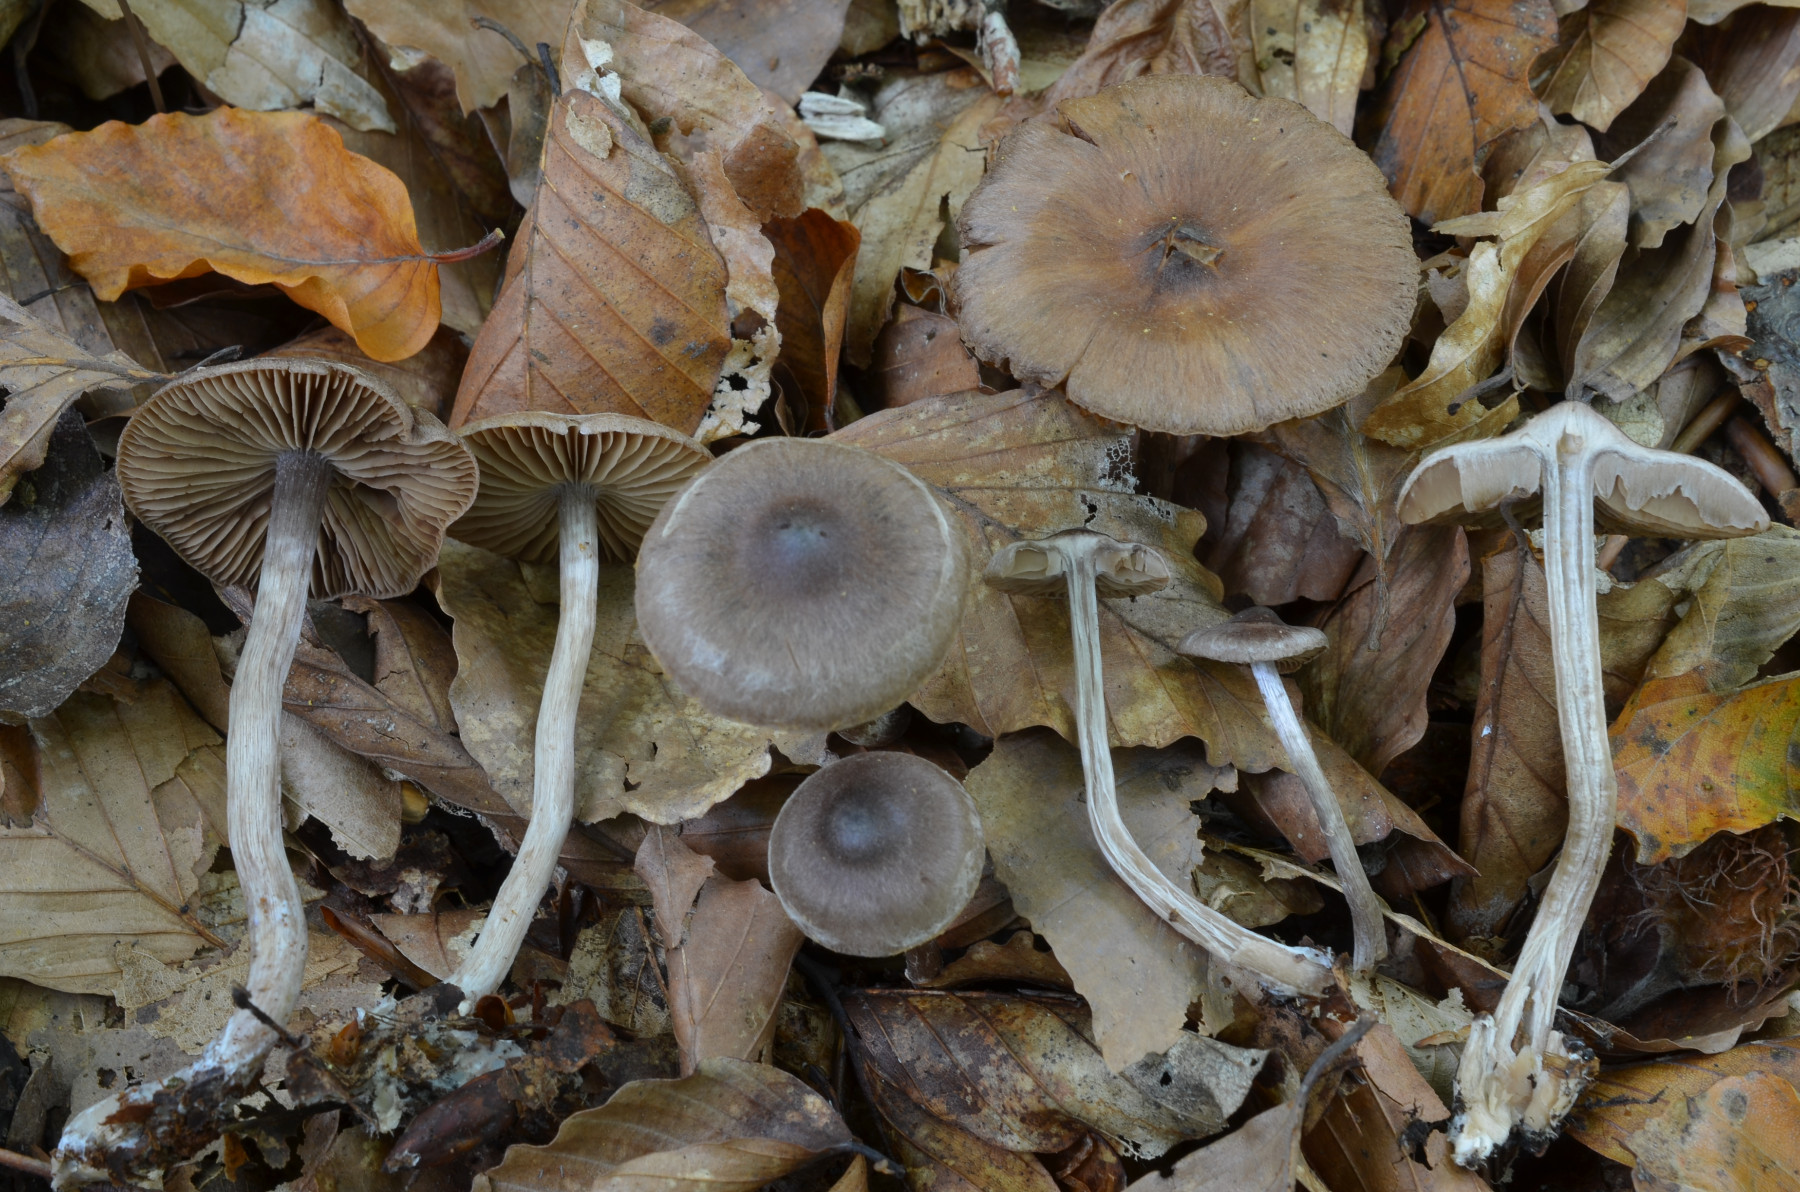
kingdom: Fungi
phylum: Basidiomycota
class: Agaricomycetes
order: Agaricales
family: Cortinariaceae
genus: Cortinarius
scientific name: Cortinarius falsosus
